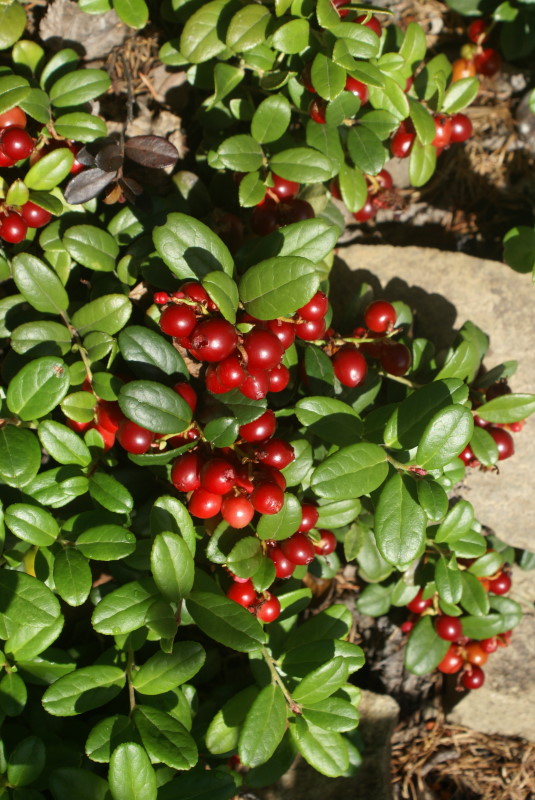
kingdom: Plantae
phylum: Tracheophyta
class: Magnoliopsida
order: Ericales
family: Ericaceae
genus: Vaccinium
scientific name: Vaccinium vitis-idaea
